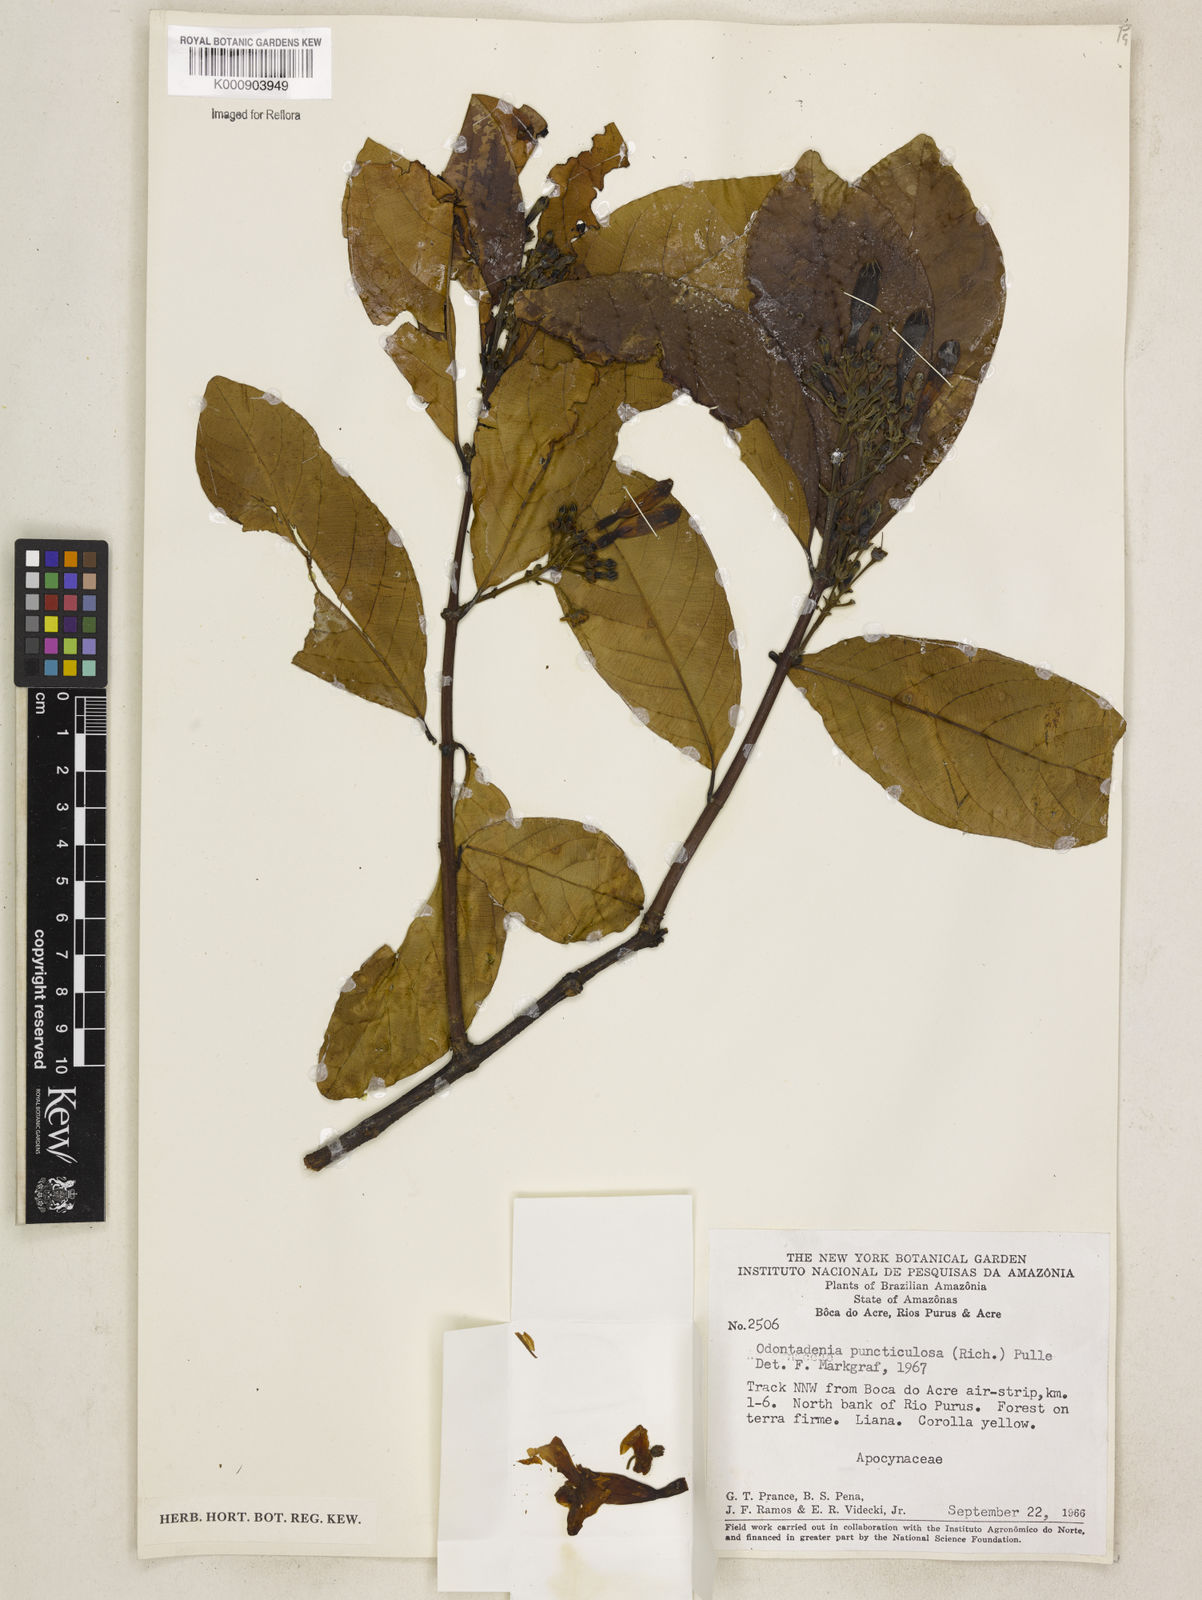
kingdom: Plantae
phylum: Tracheophyta
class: Magnoliopsida
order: Gentianales
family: Apocynaceae
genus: Odontadenia
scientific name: Odontadenia puncticulosa
